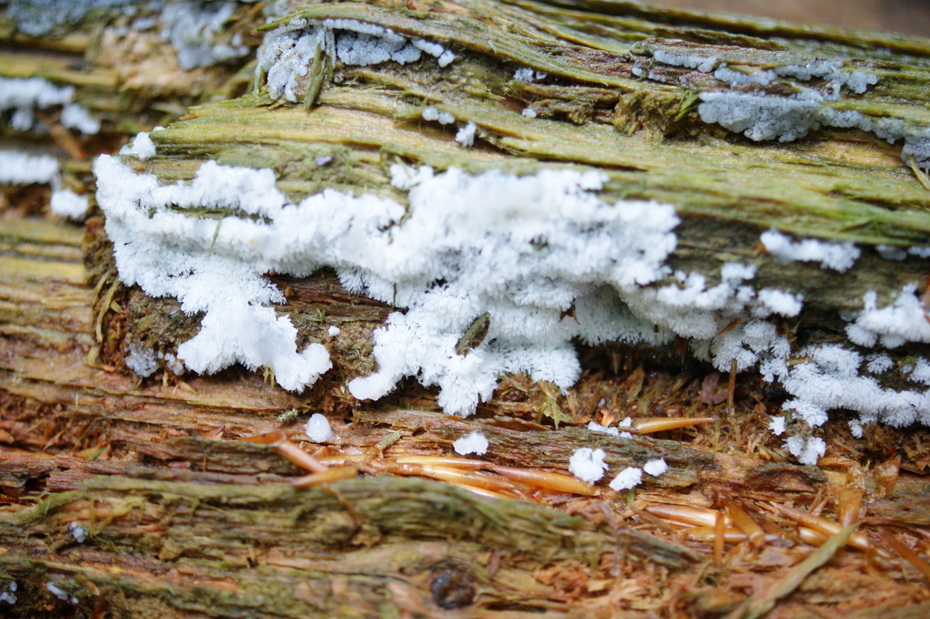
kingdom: Protozoa
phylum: Mycetozoa
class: Protosteliomycetes
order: Ceratiomyxales
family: Ceratiomyxaceae
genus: Ceratiomyxa
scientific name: Ceratiomyxa fruticulosa
